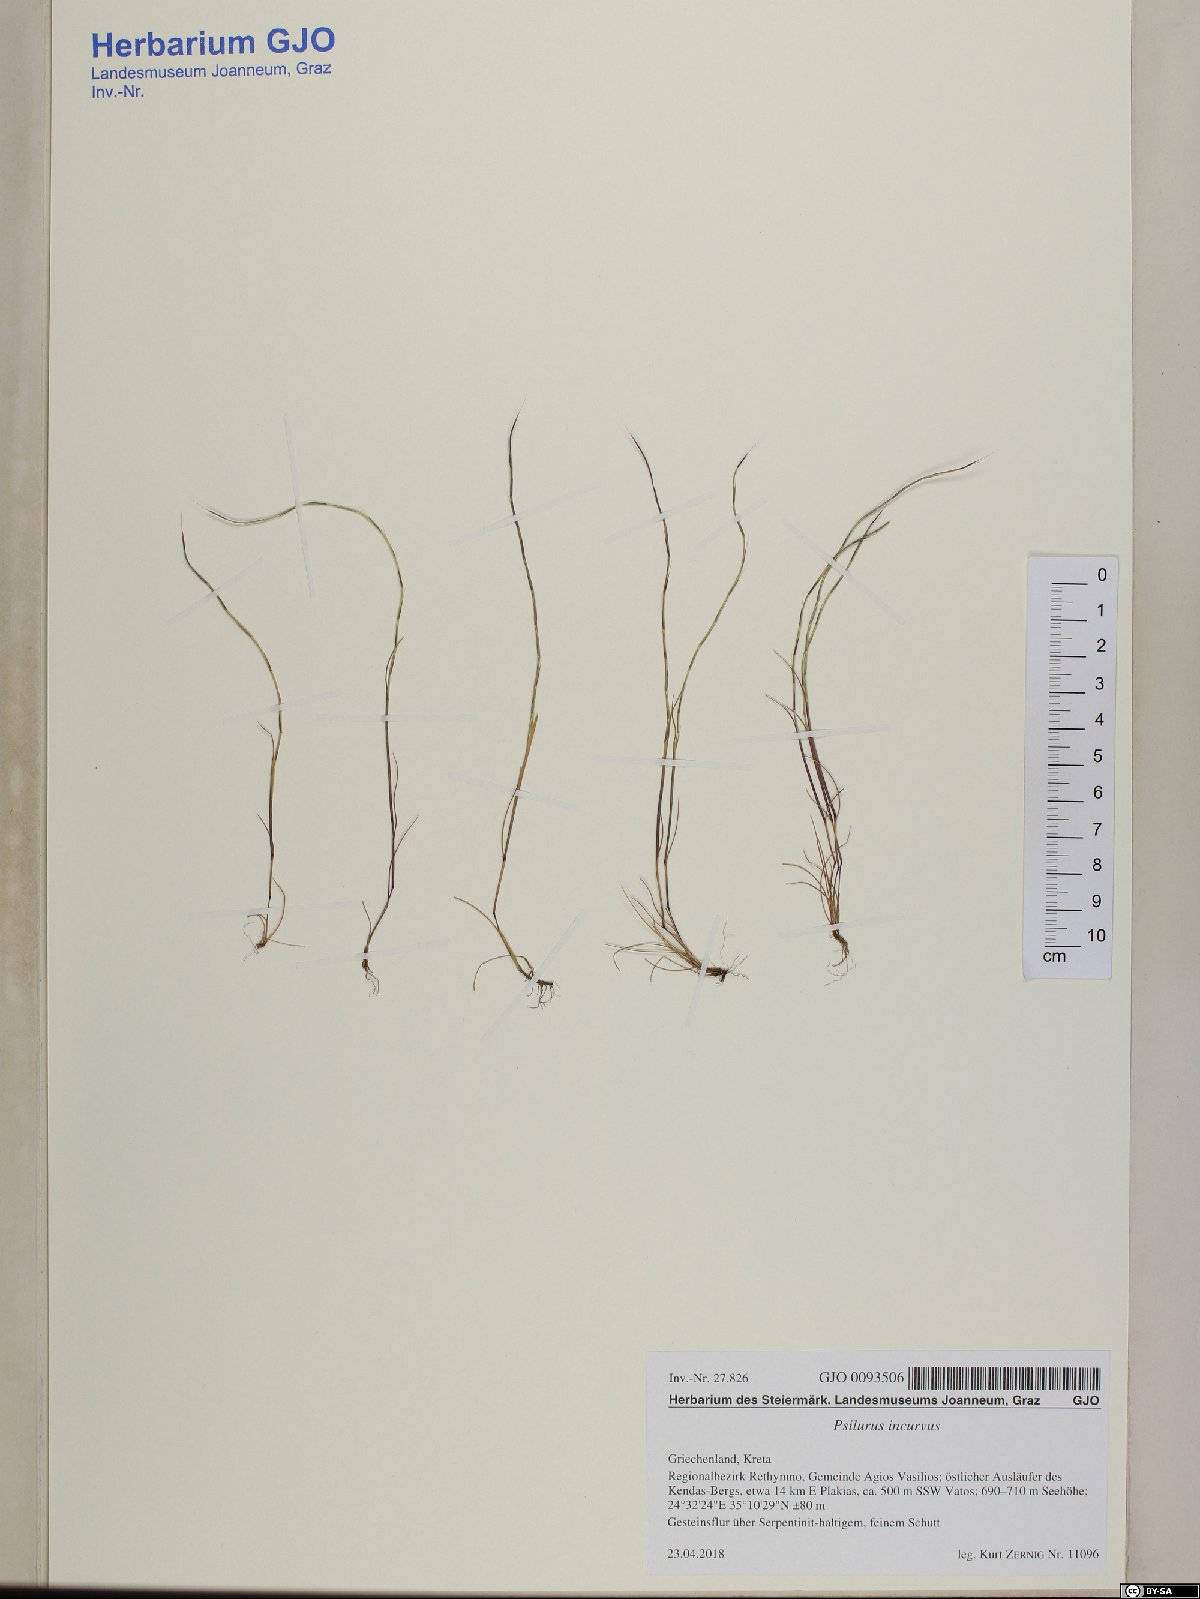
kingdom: Plantae
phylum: Tracheophyta
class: Liliopsida
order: Poales
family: Poaceae
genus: Festuca
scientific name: Festuca incurva
